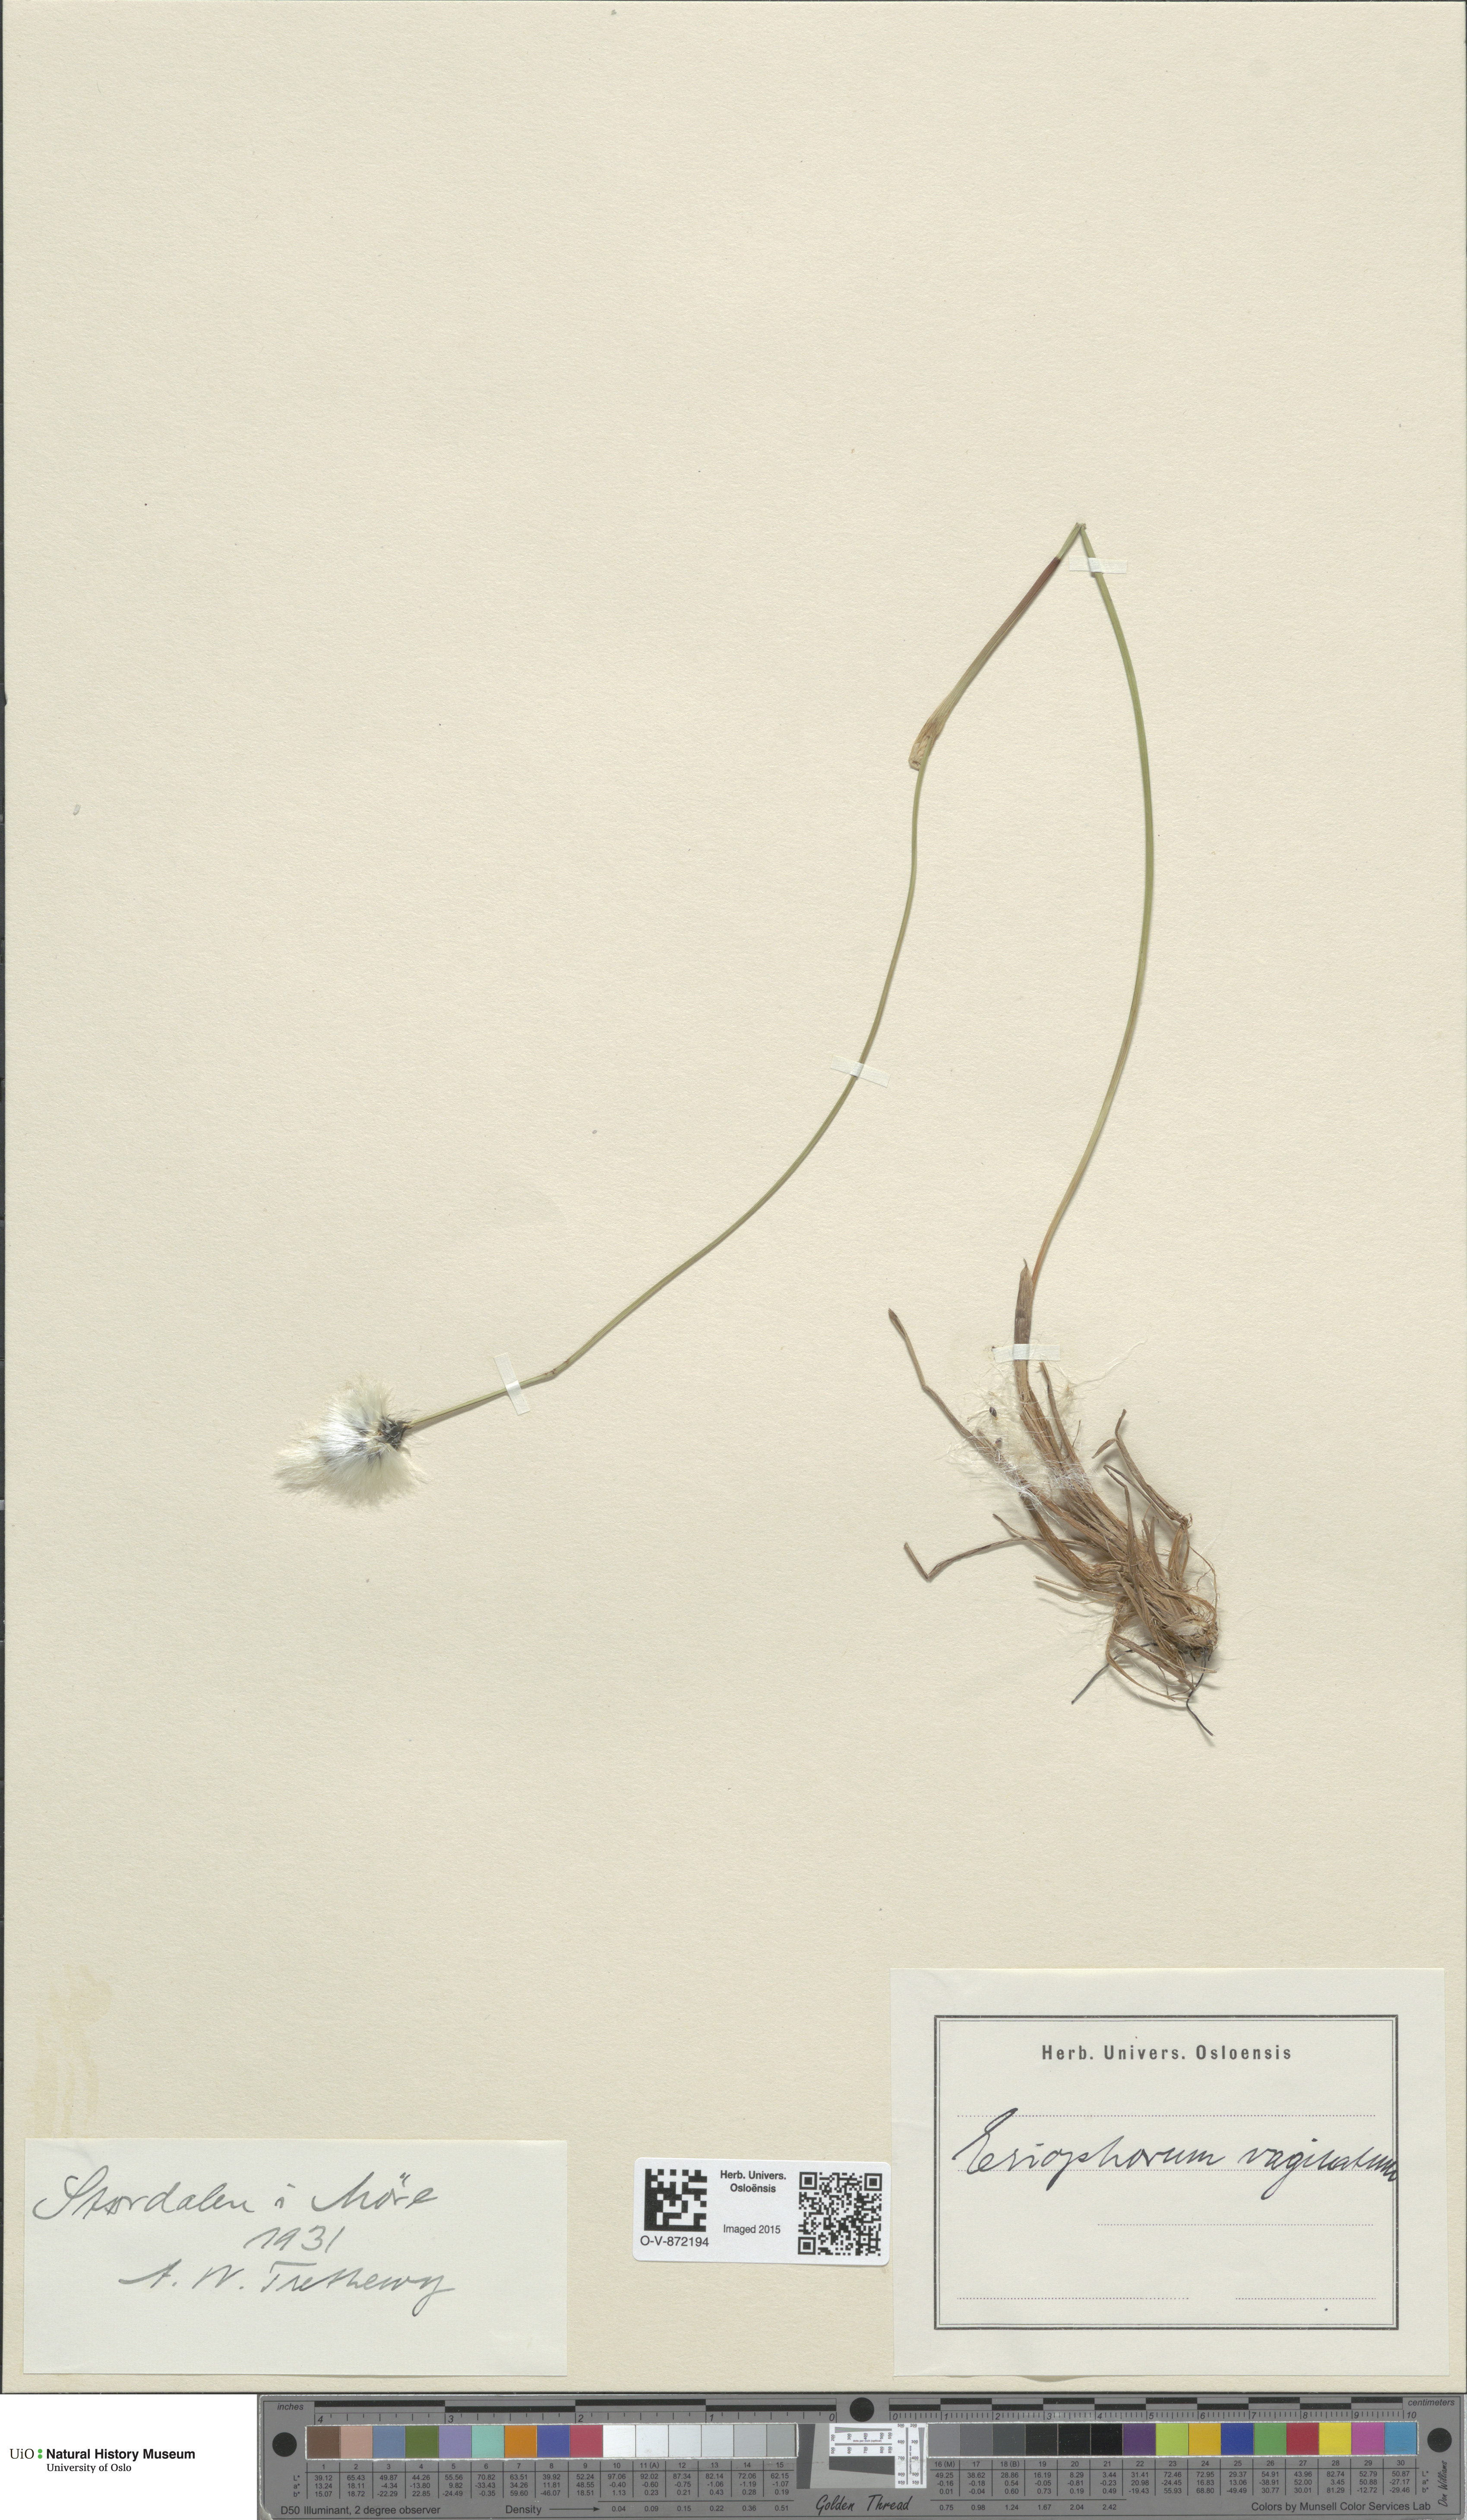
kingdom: Plantae
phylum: Tracheophyta
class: Liliopsida
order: Poales
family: Cyperaceae
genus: Eriophorum
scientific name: Eriophorum vaginatum
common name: Hare's-tail cottongrass
